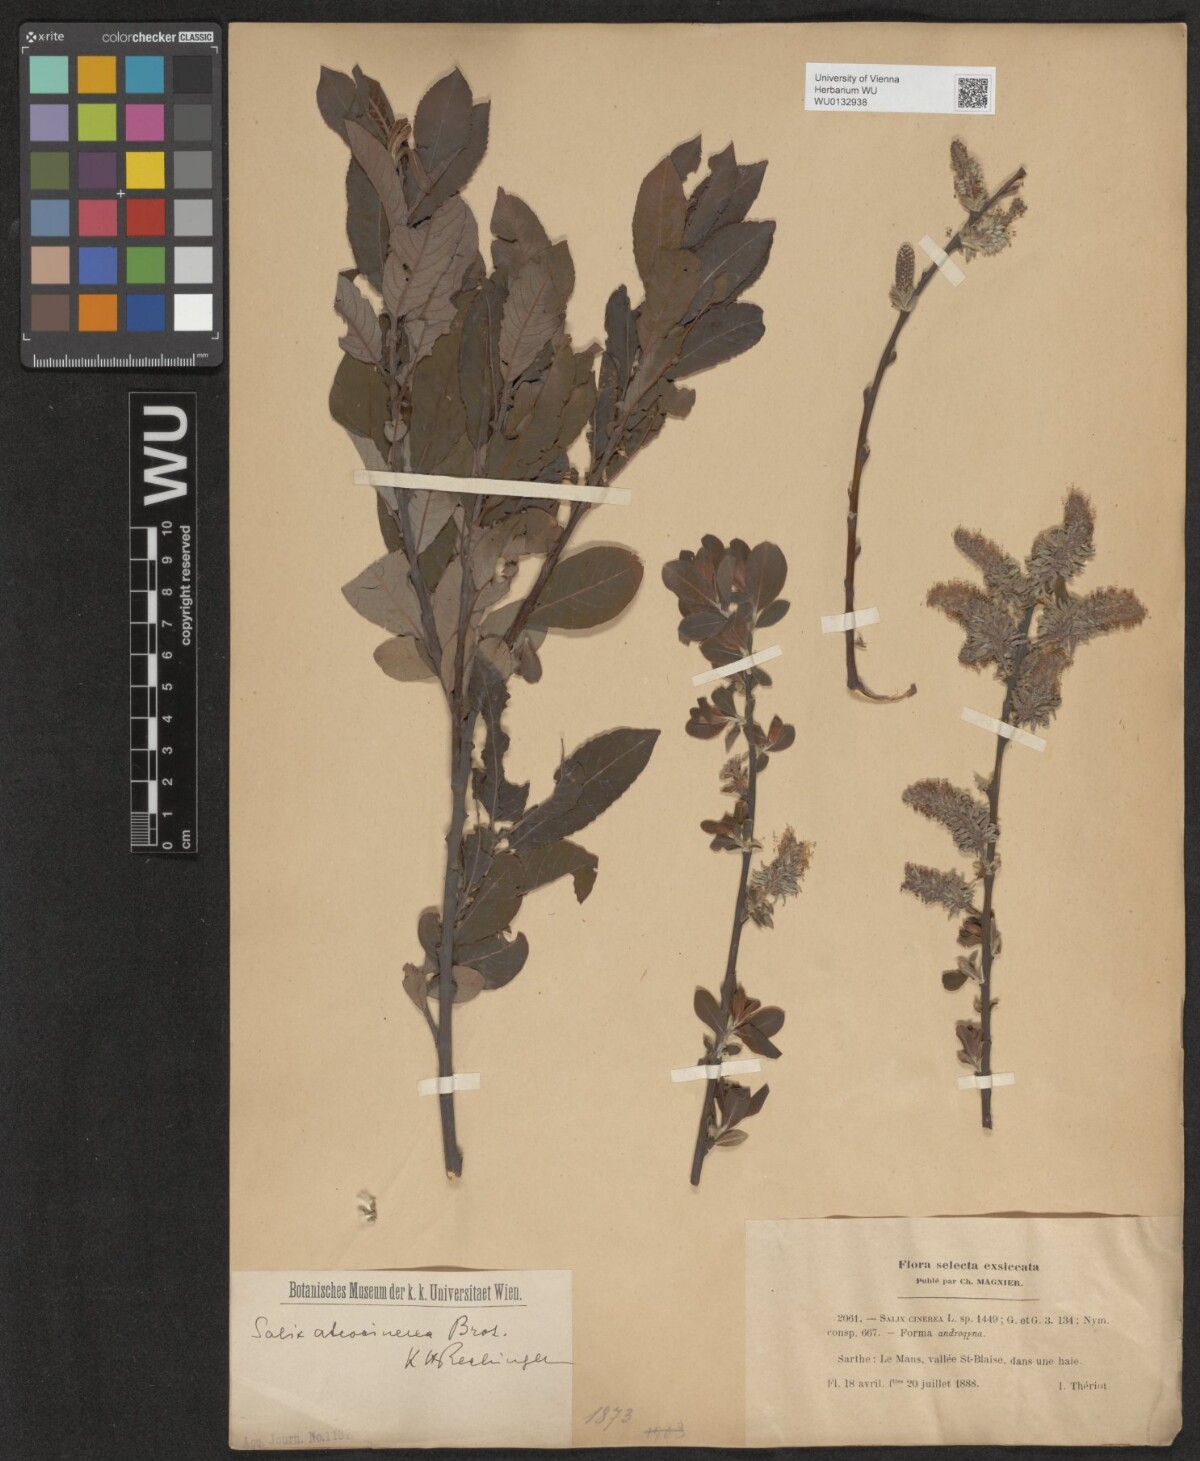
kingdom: Plantae
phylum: Tracheophyta
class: Magnoliopsida
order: Malpighiales
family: Salicaceae
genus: Salix
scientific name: Salix atrocinerea
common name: Rusty willow
